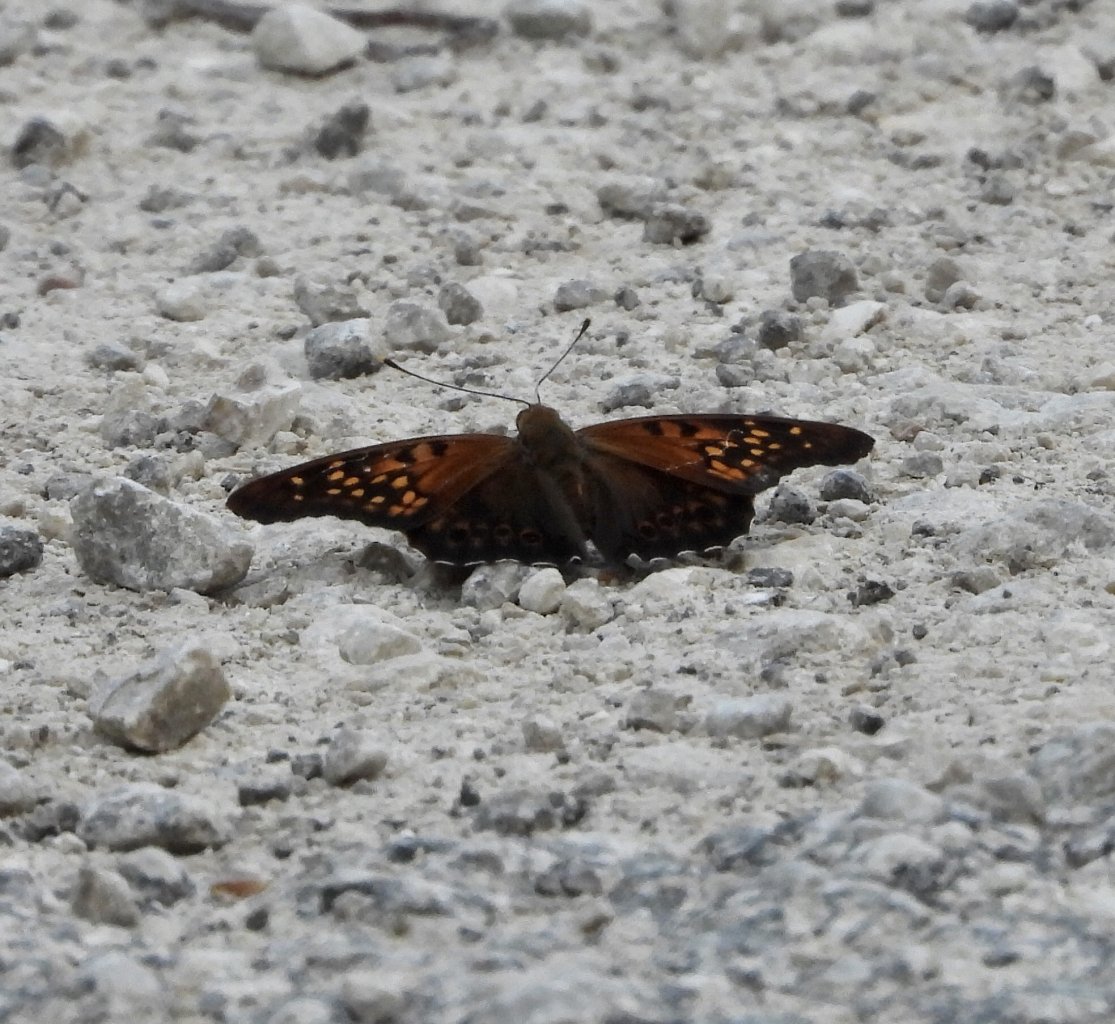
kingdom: Animalia
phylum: Arthropoda
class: Insecta
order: Lepidoptera
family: Nymphalidae
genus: Asterocampa
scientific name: Asterocampa clyton
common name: Tawny Emperor
